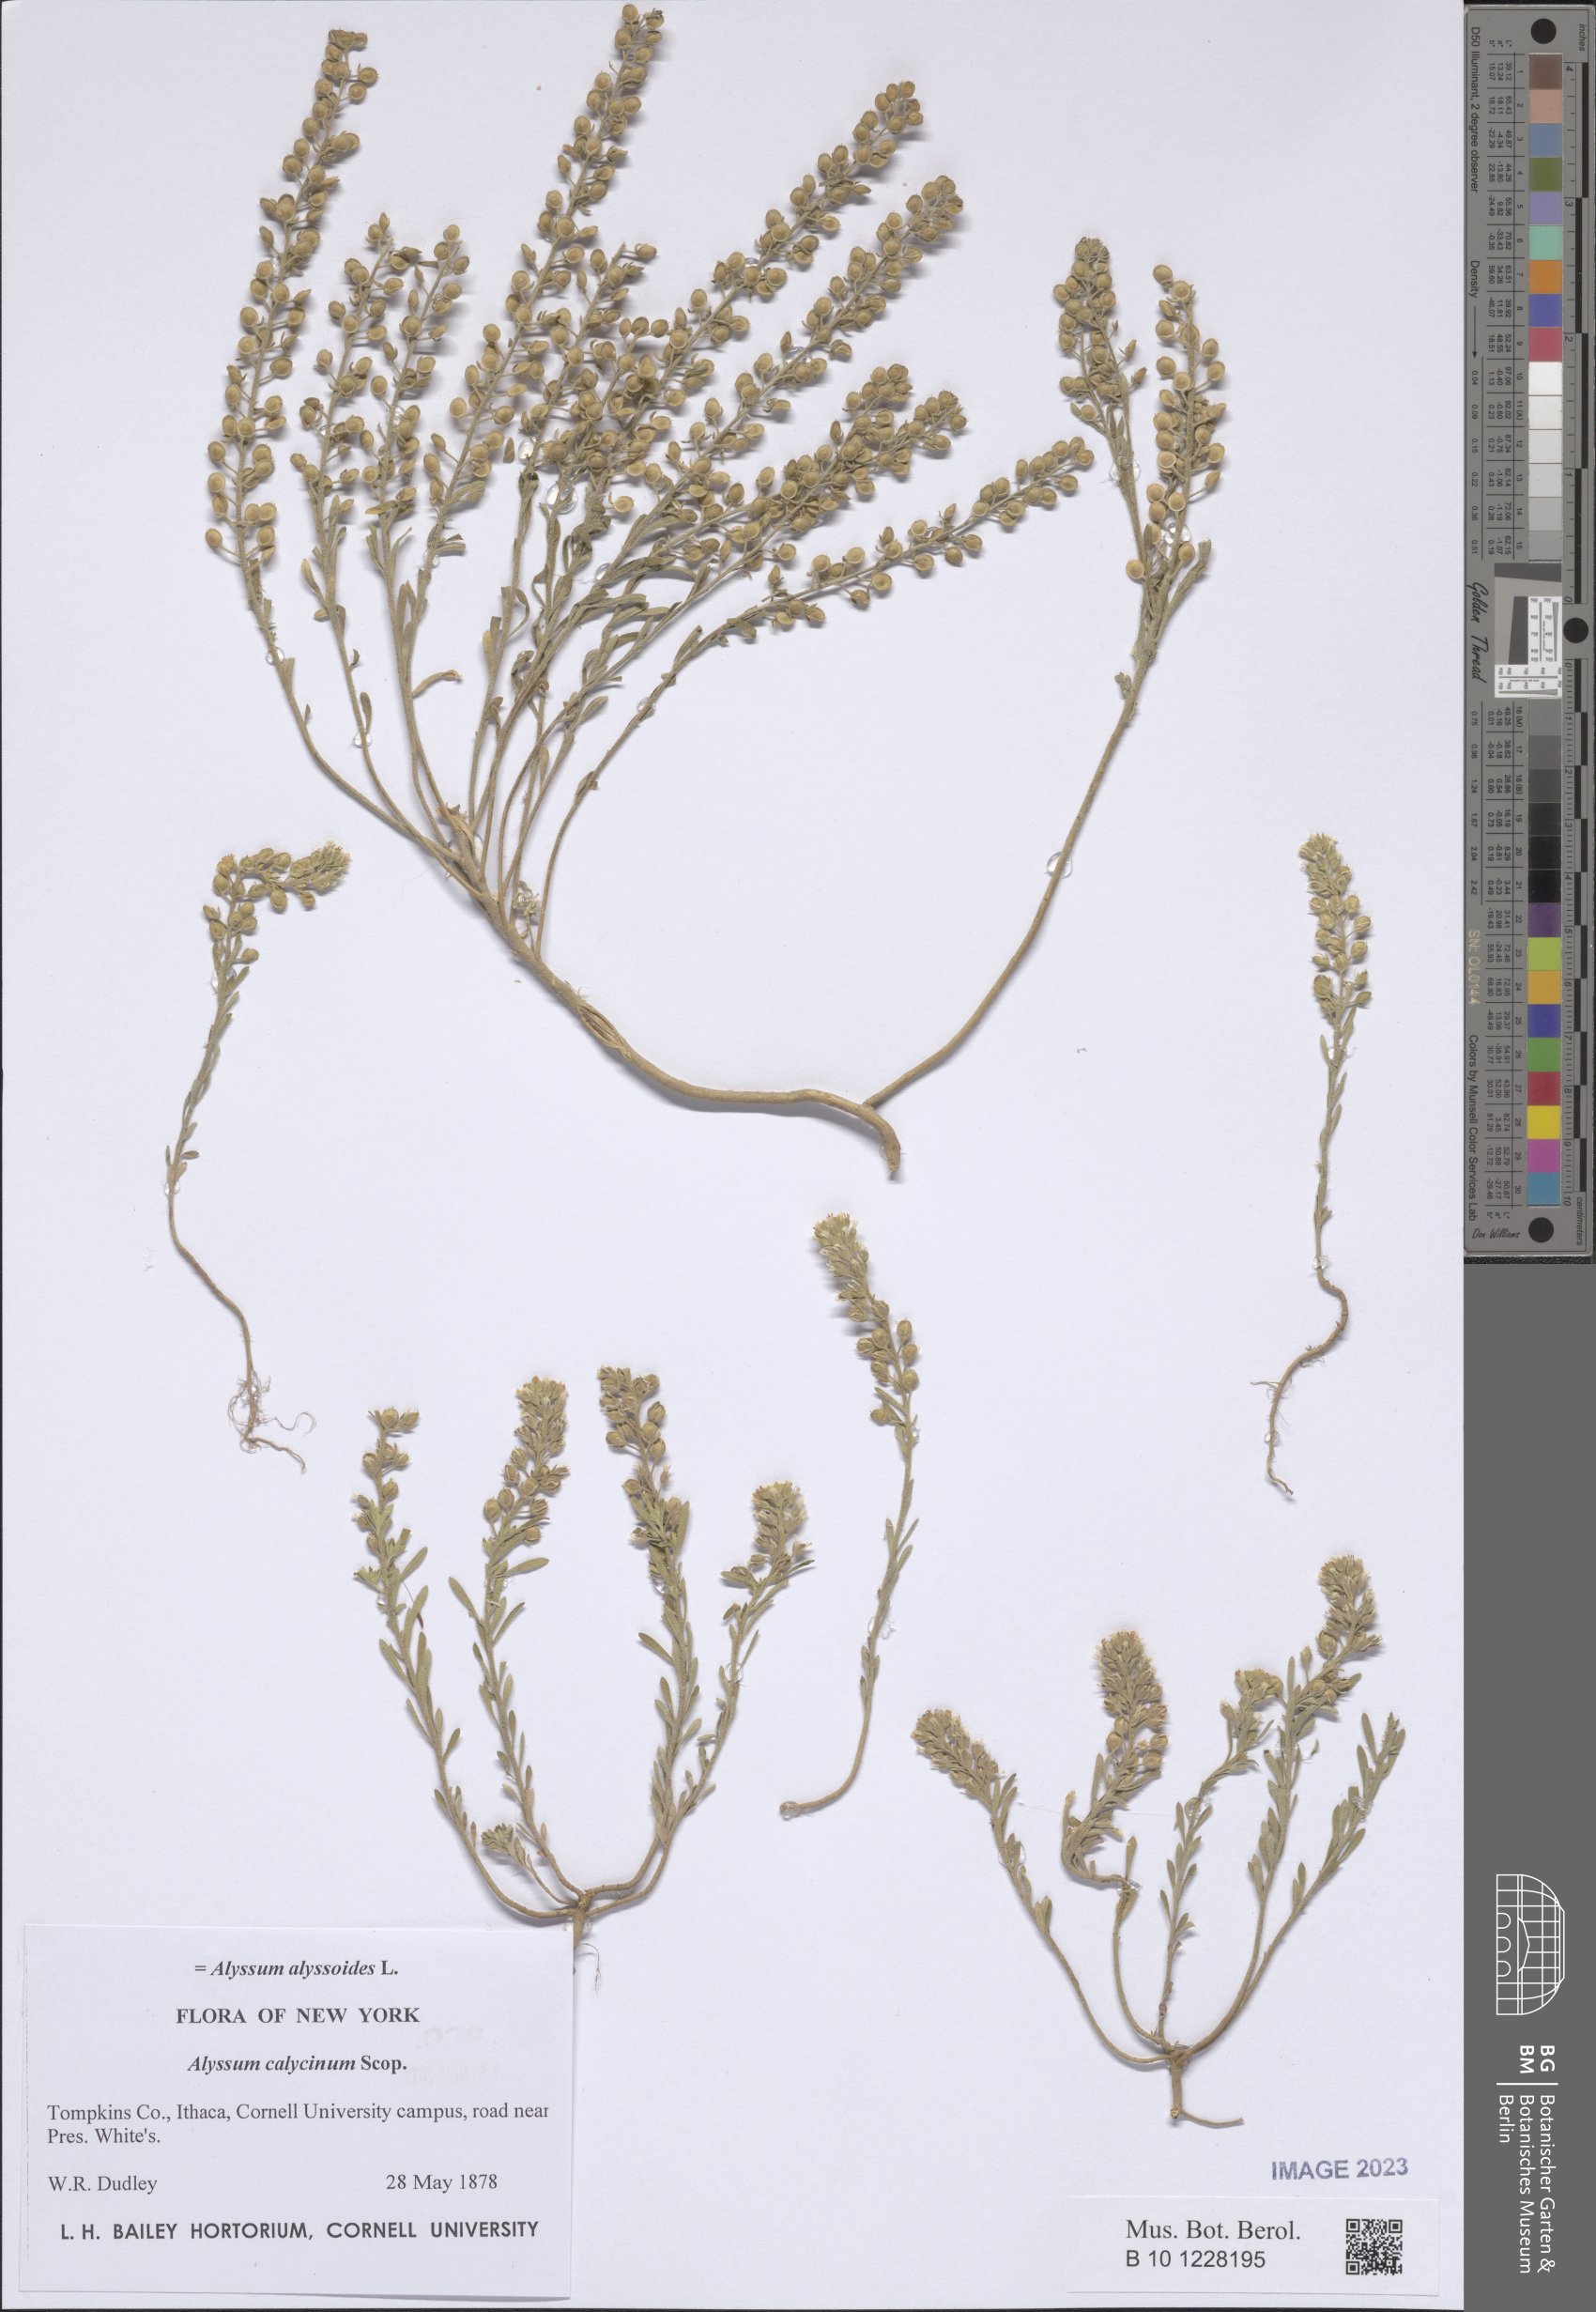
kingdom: Plantae
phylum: Tracheophyta
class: Magnoliopsida
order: Brassicales
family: Brassicaceae
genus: Alyssum
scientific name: Alyssum alyssoides
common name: Small alison
